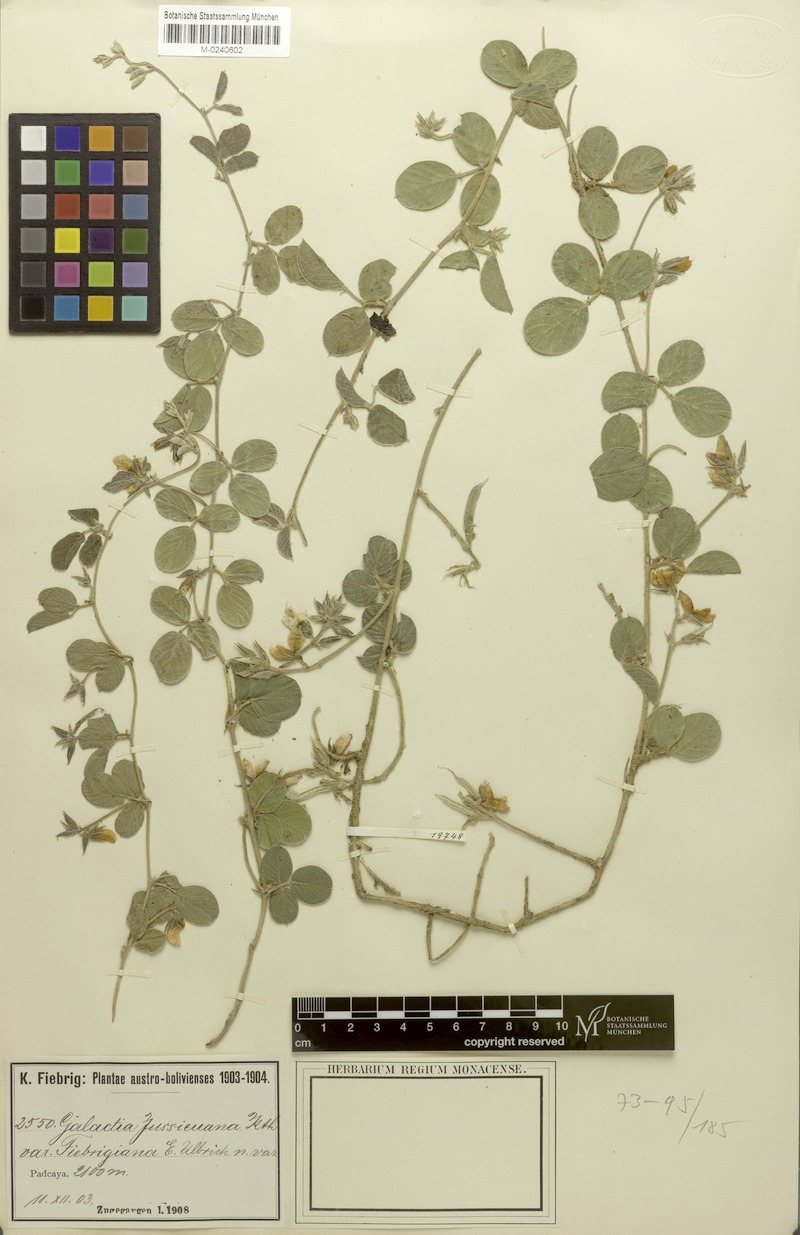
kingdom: Plantae
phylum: Tracheophyta
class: Magnoliopsida
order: Fabales
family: Fabaceae
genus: Galactia
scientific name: Galactia fiebrigiana
